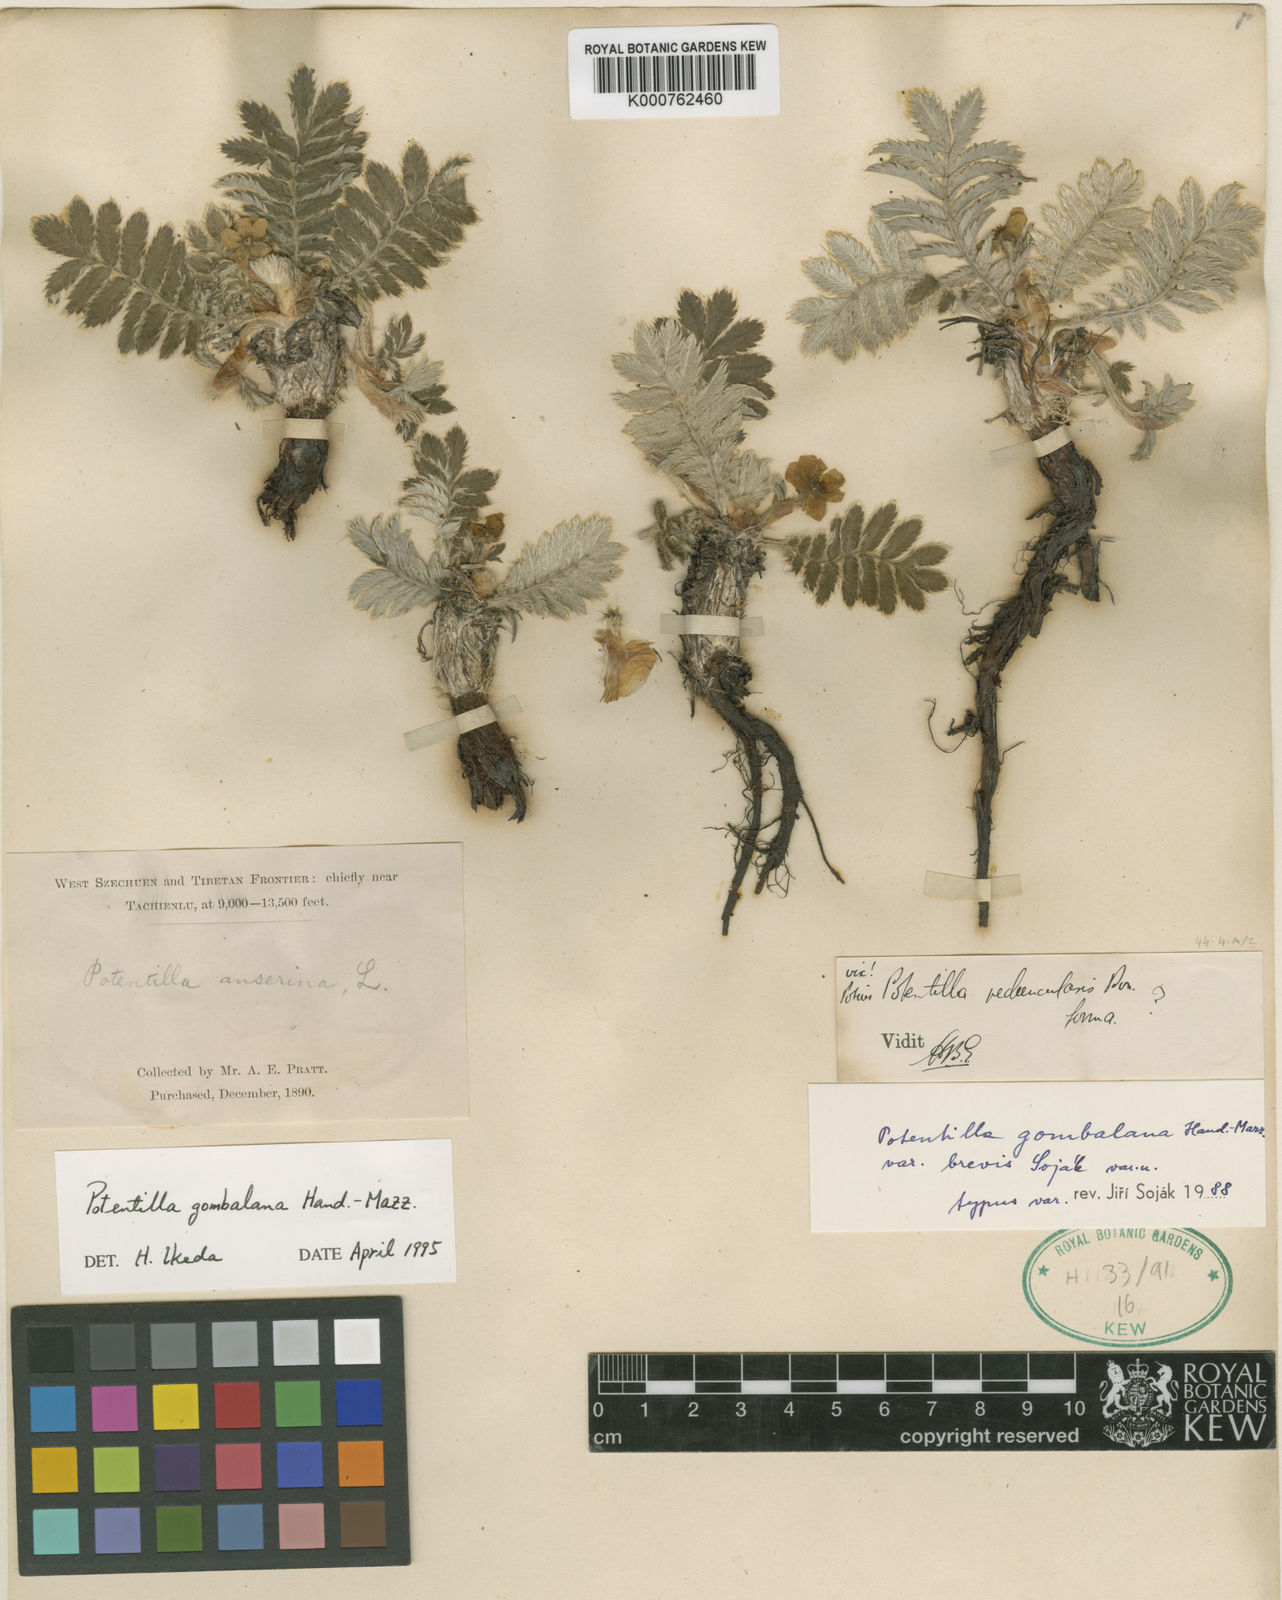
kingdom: Plantae
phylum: Tracheophyta
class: Magnoliopsida
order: Rosales
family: Rosaceae
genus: Argentina
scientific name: Argentina gombalana
